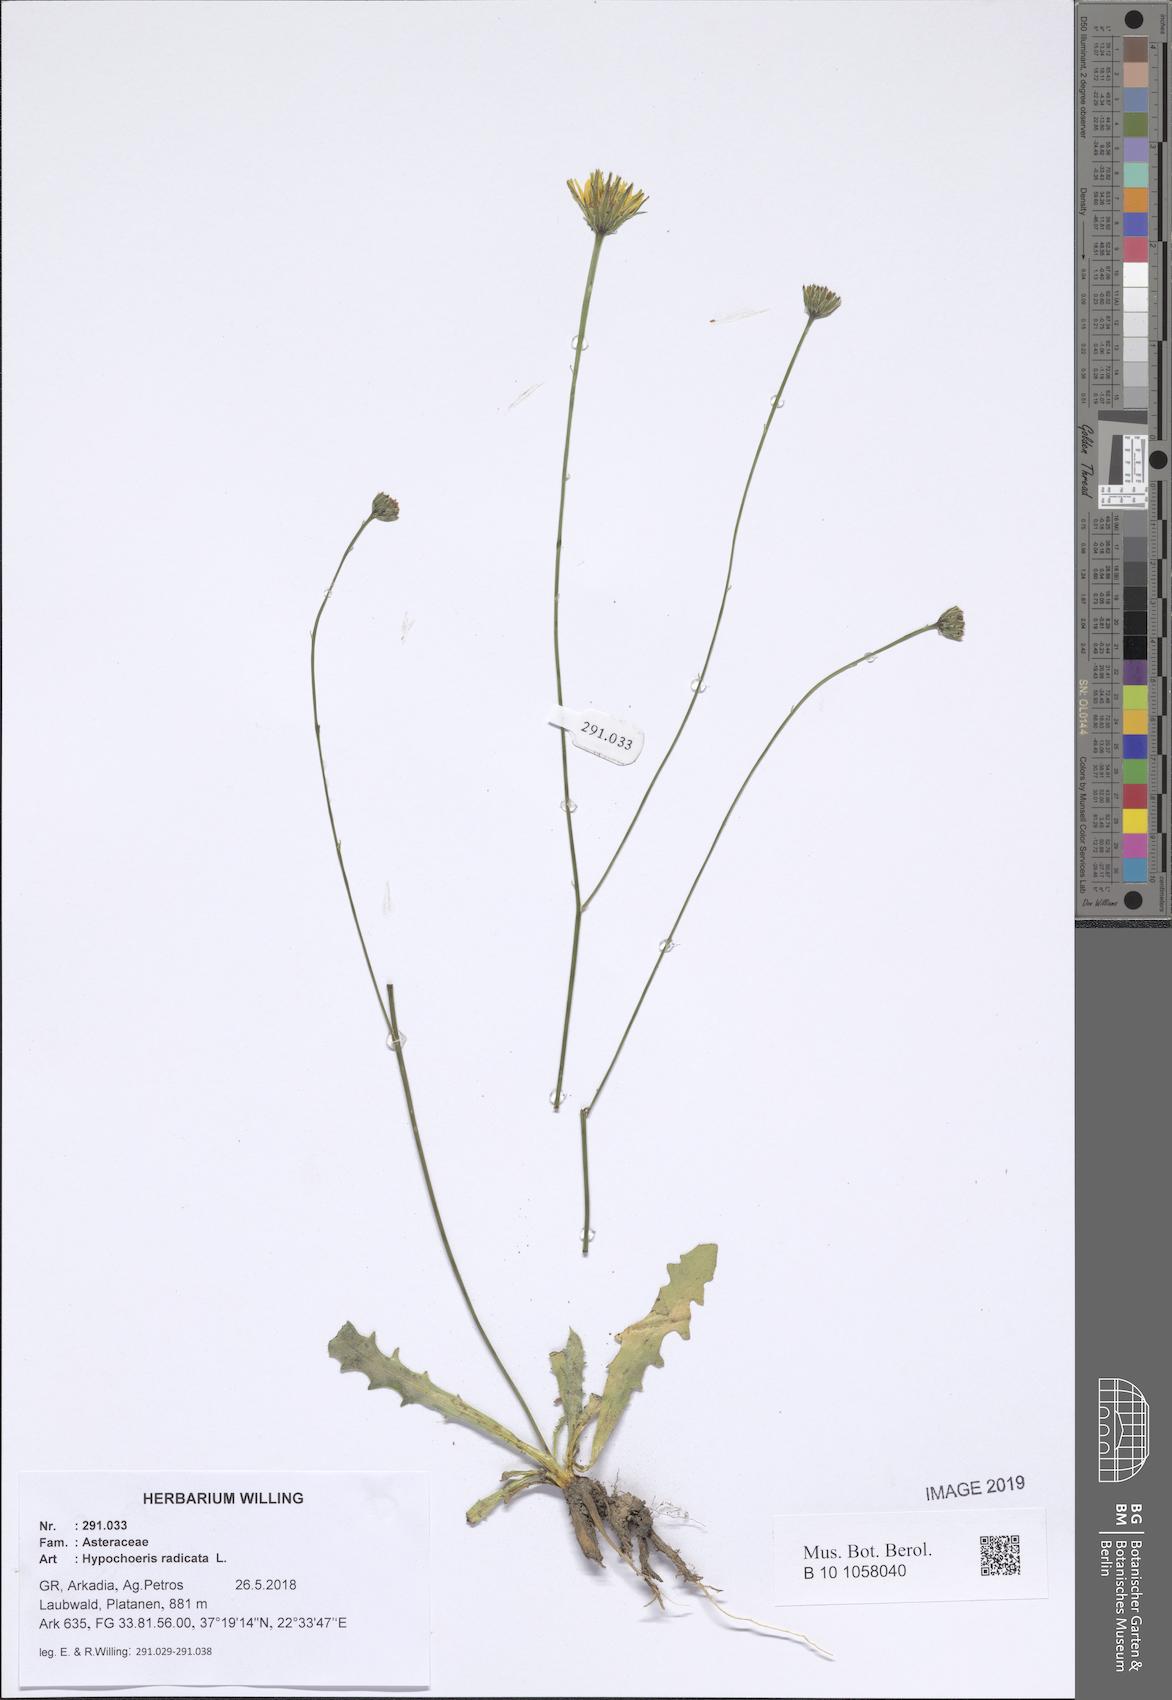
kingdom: Plantae
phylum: Tracheophyta
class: Magnoliopsida
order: Asterales
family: Asteraceae
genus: Hypochaeris
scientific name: Hypochaeris radicata
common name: Flatweed
